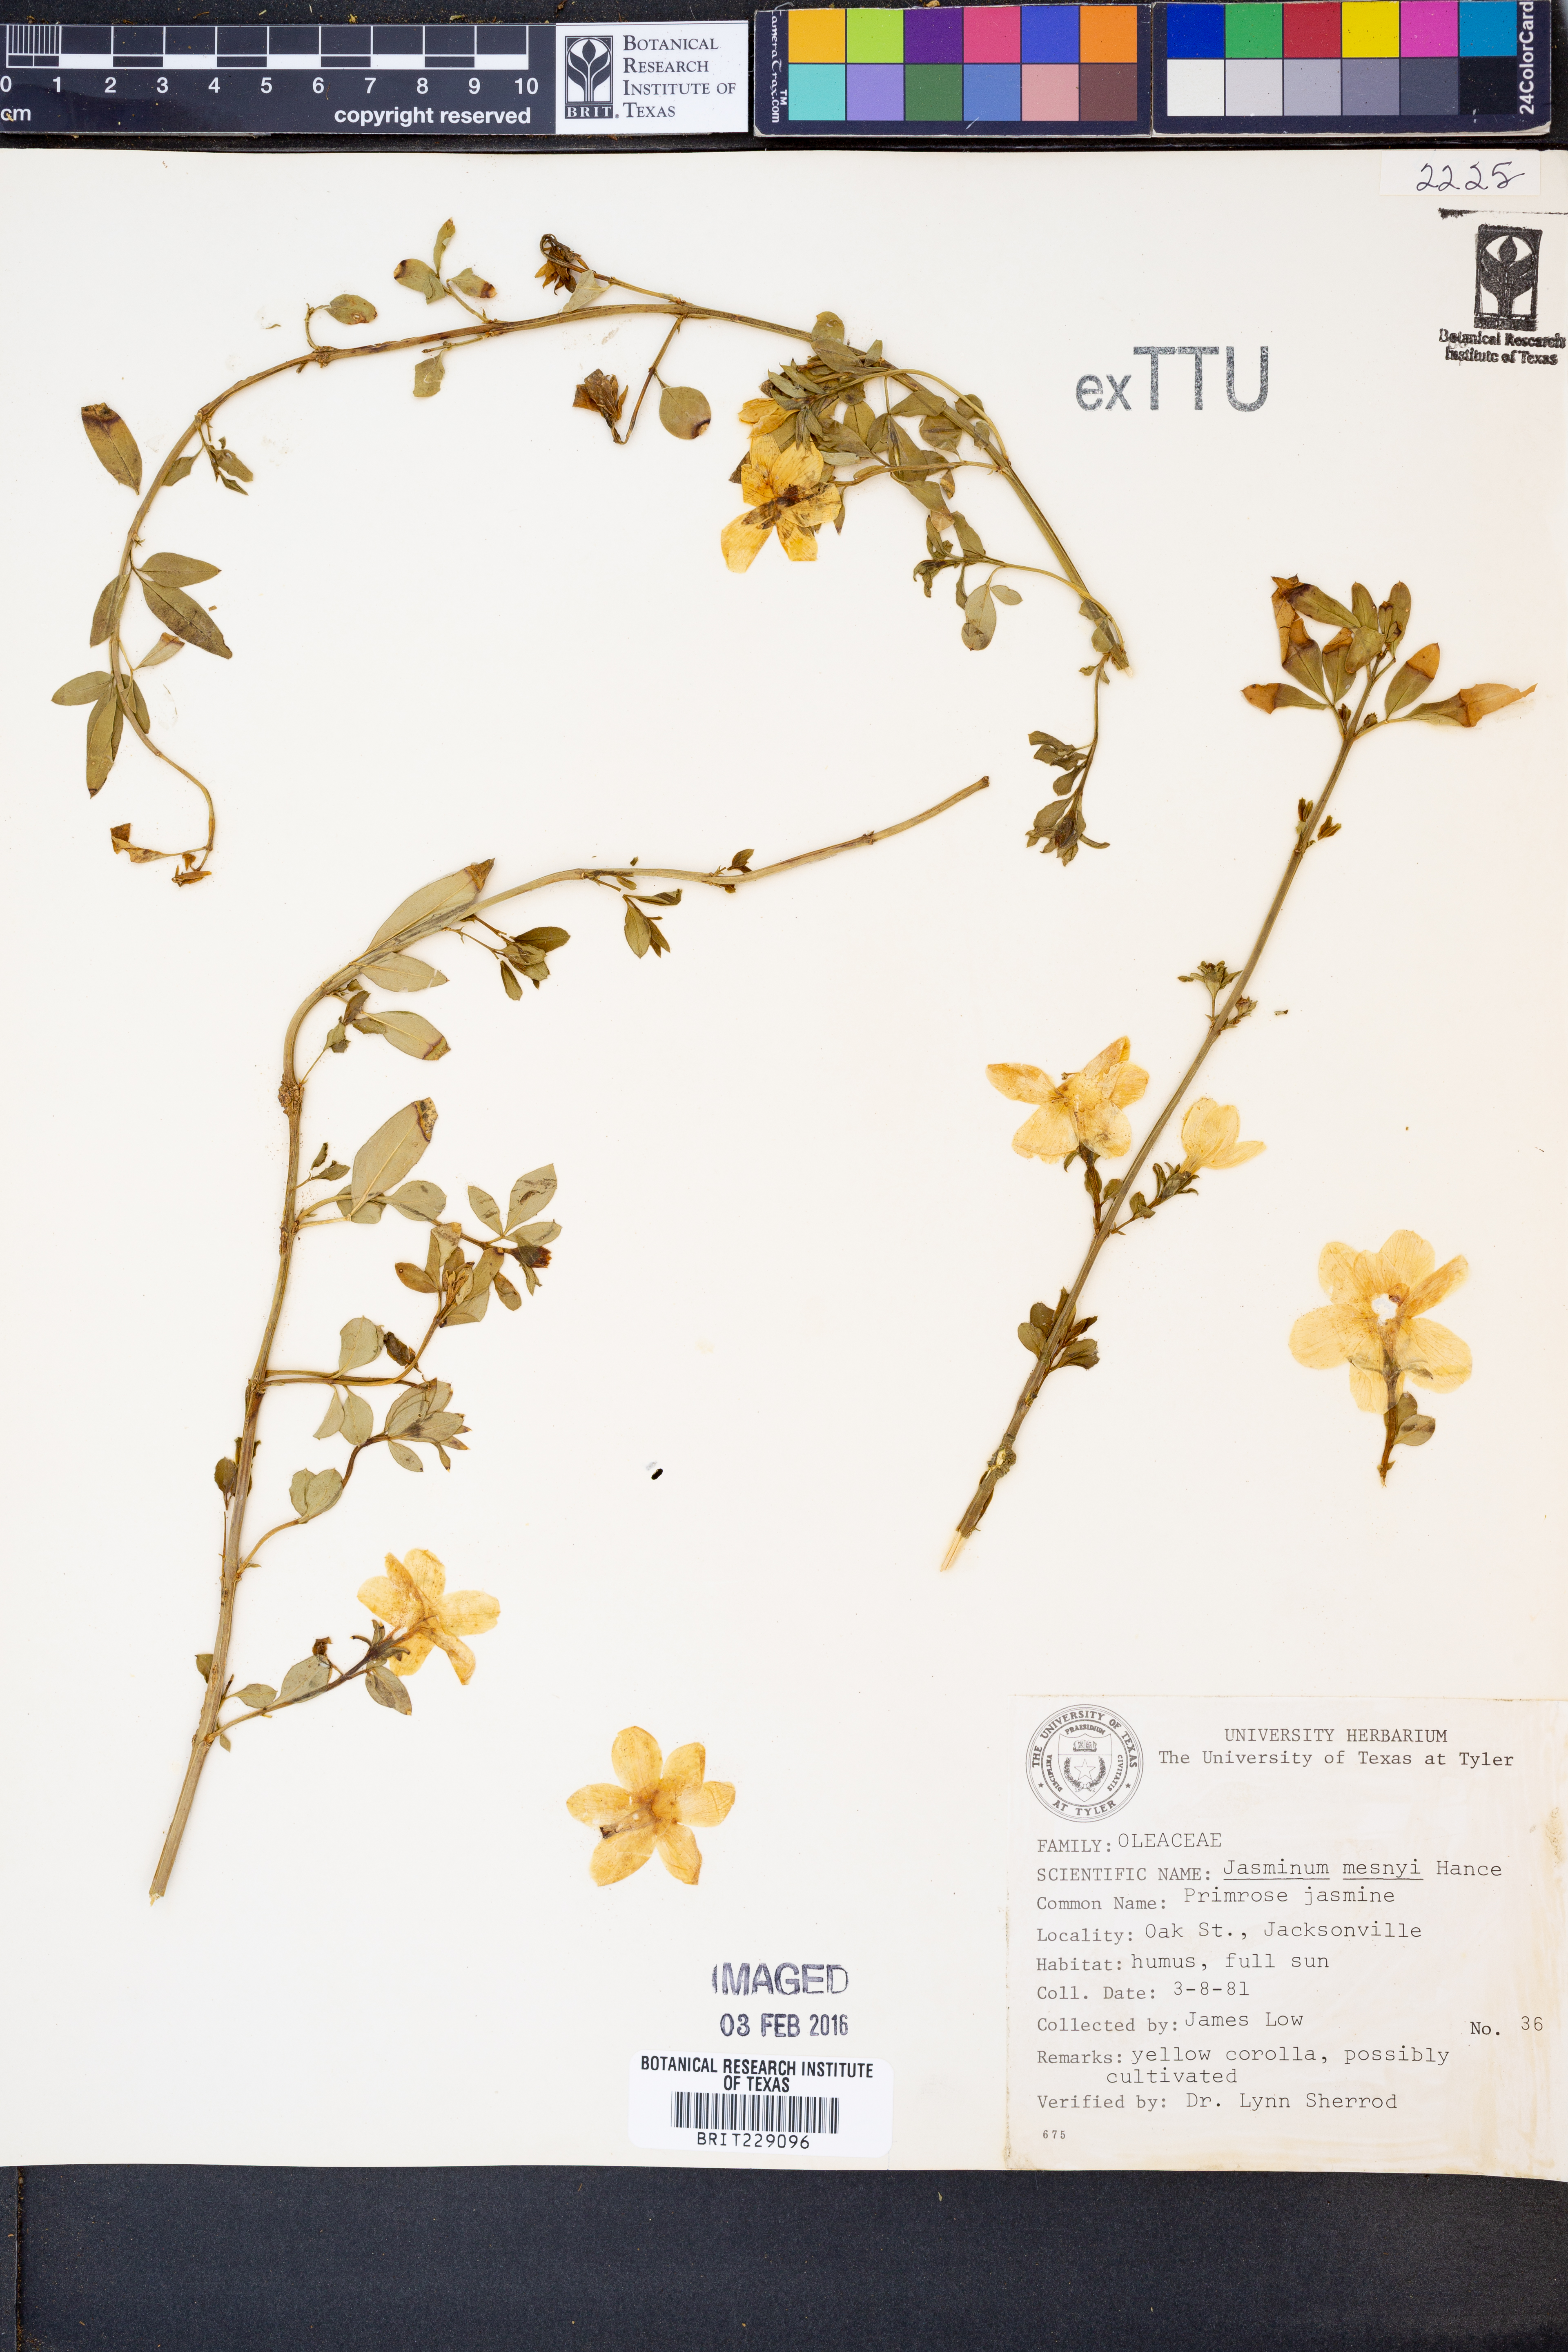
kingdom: Plantae
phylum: Tracheophyta
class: Magnoliopsida
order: Lamiales
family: Oleaceae
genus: Jasminum
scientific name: Jasminum mesnyi
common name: Japanese jasmine
